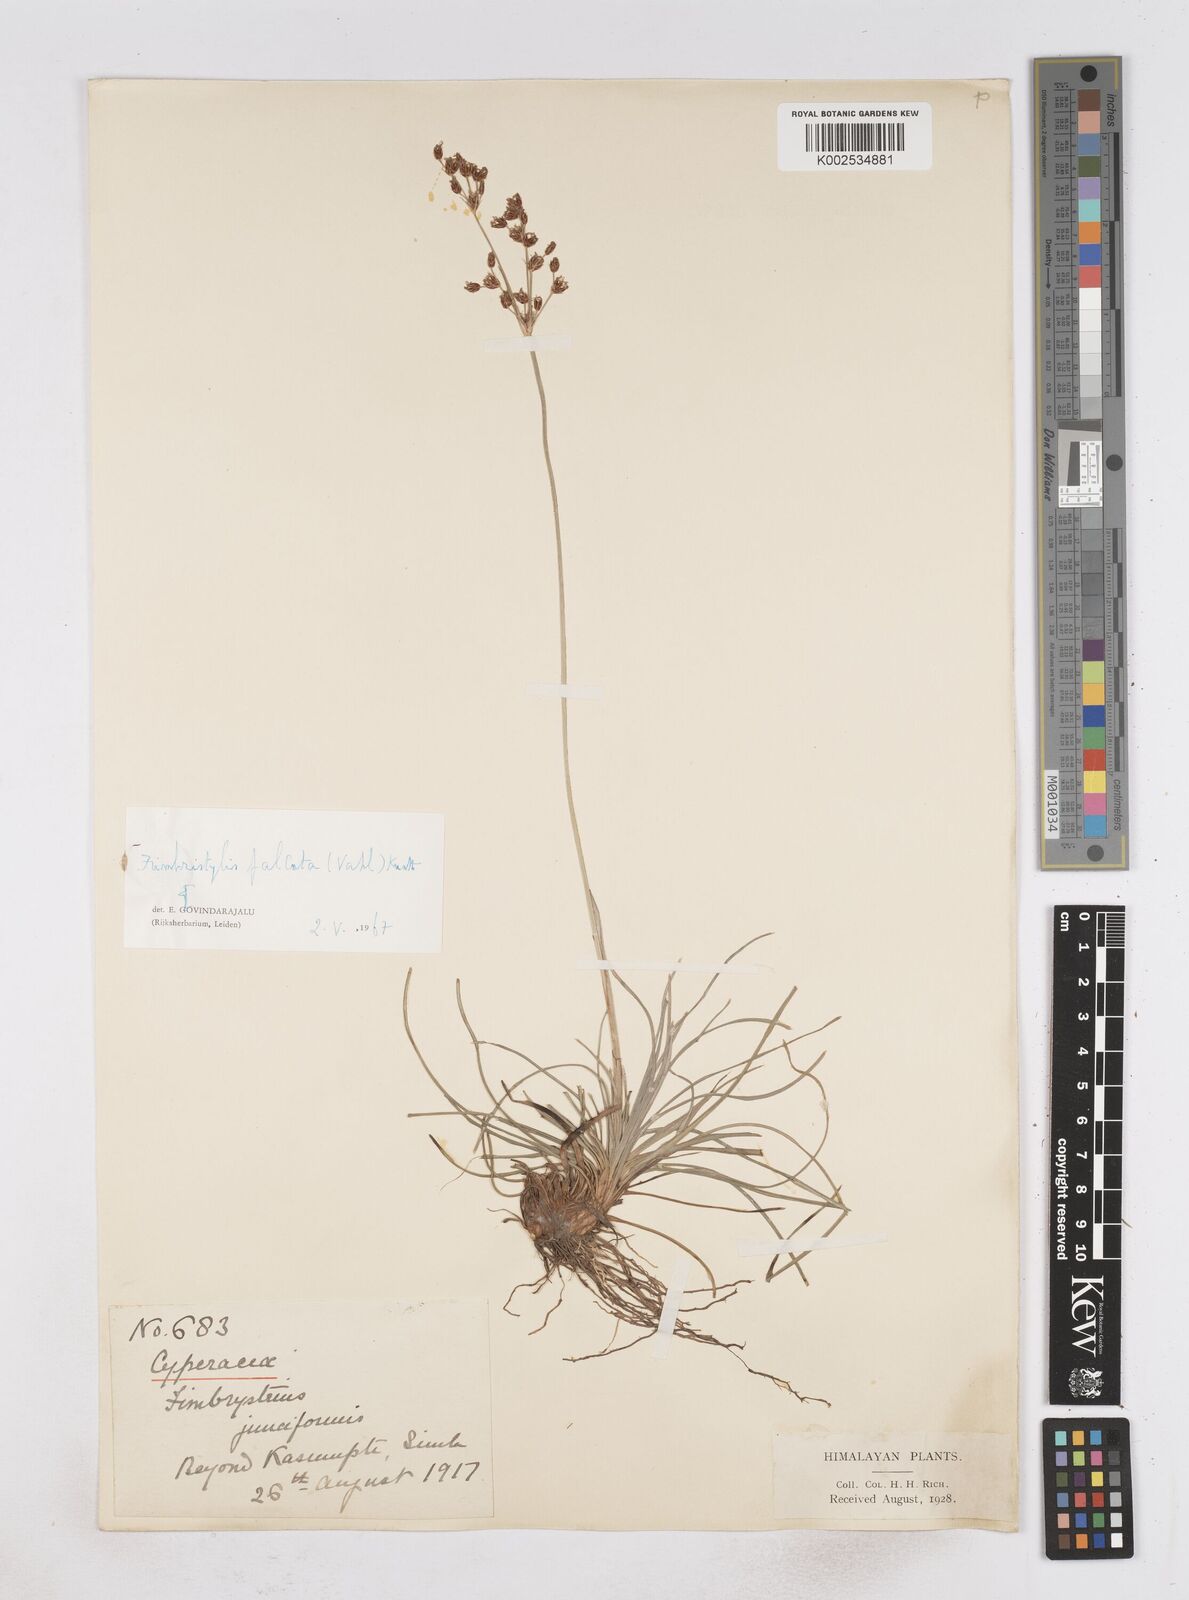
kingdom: Plantae
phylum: Tracheophyta
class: Liliopsida
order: Poales
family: Cyperaceae
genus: Fimbristylis
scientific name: Fimbristylis falcata
